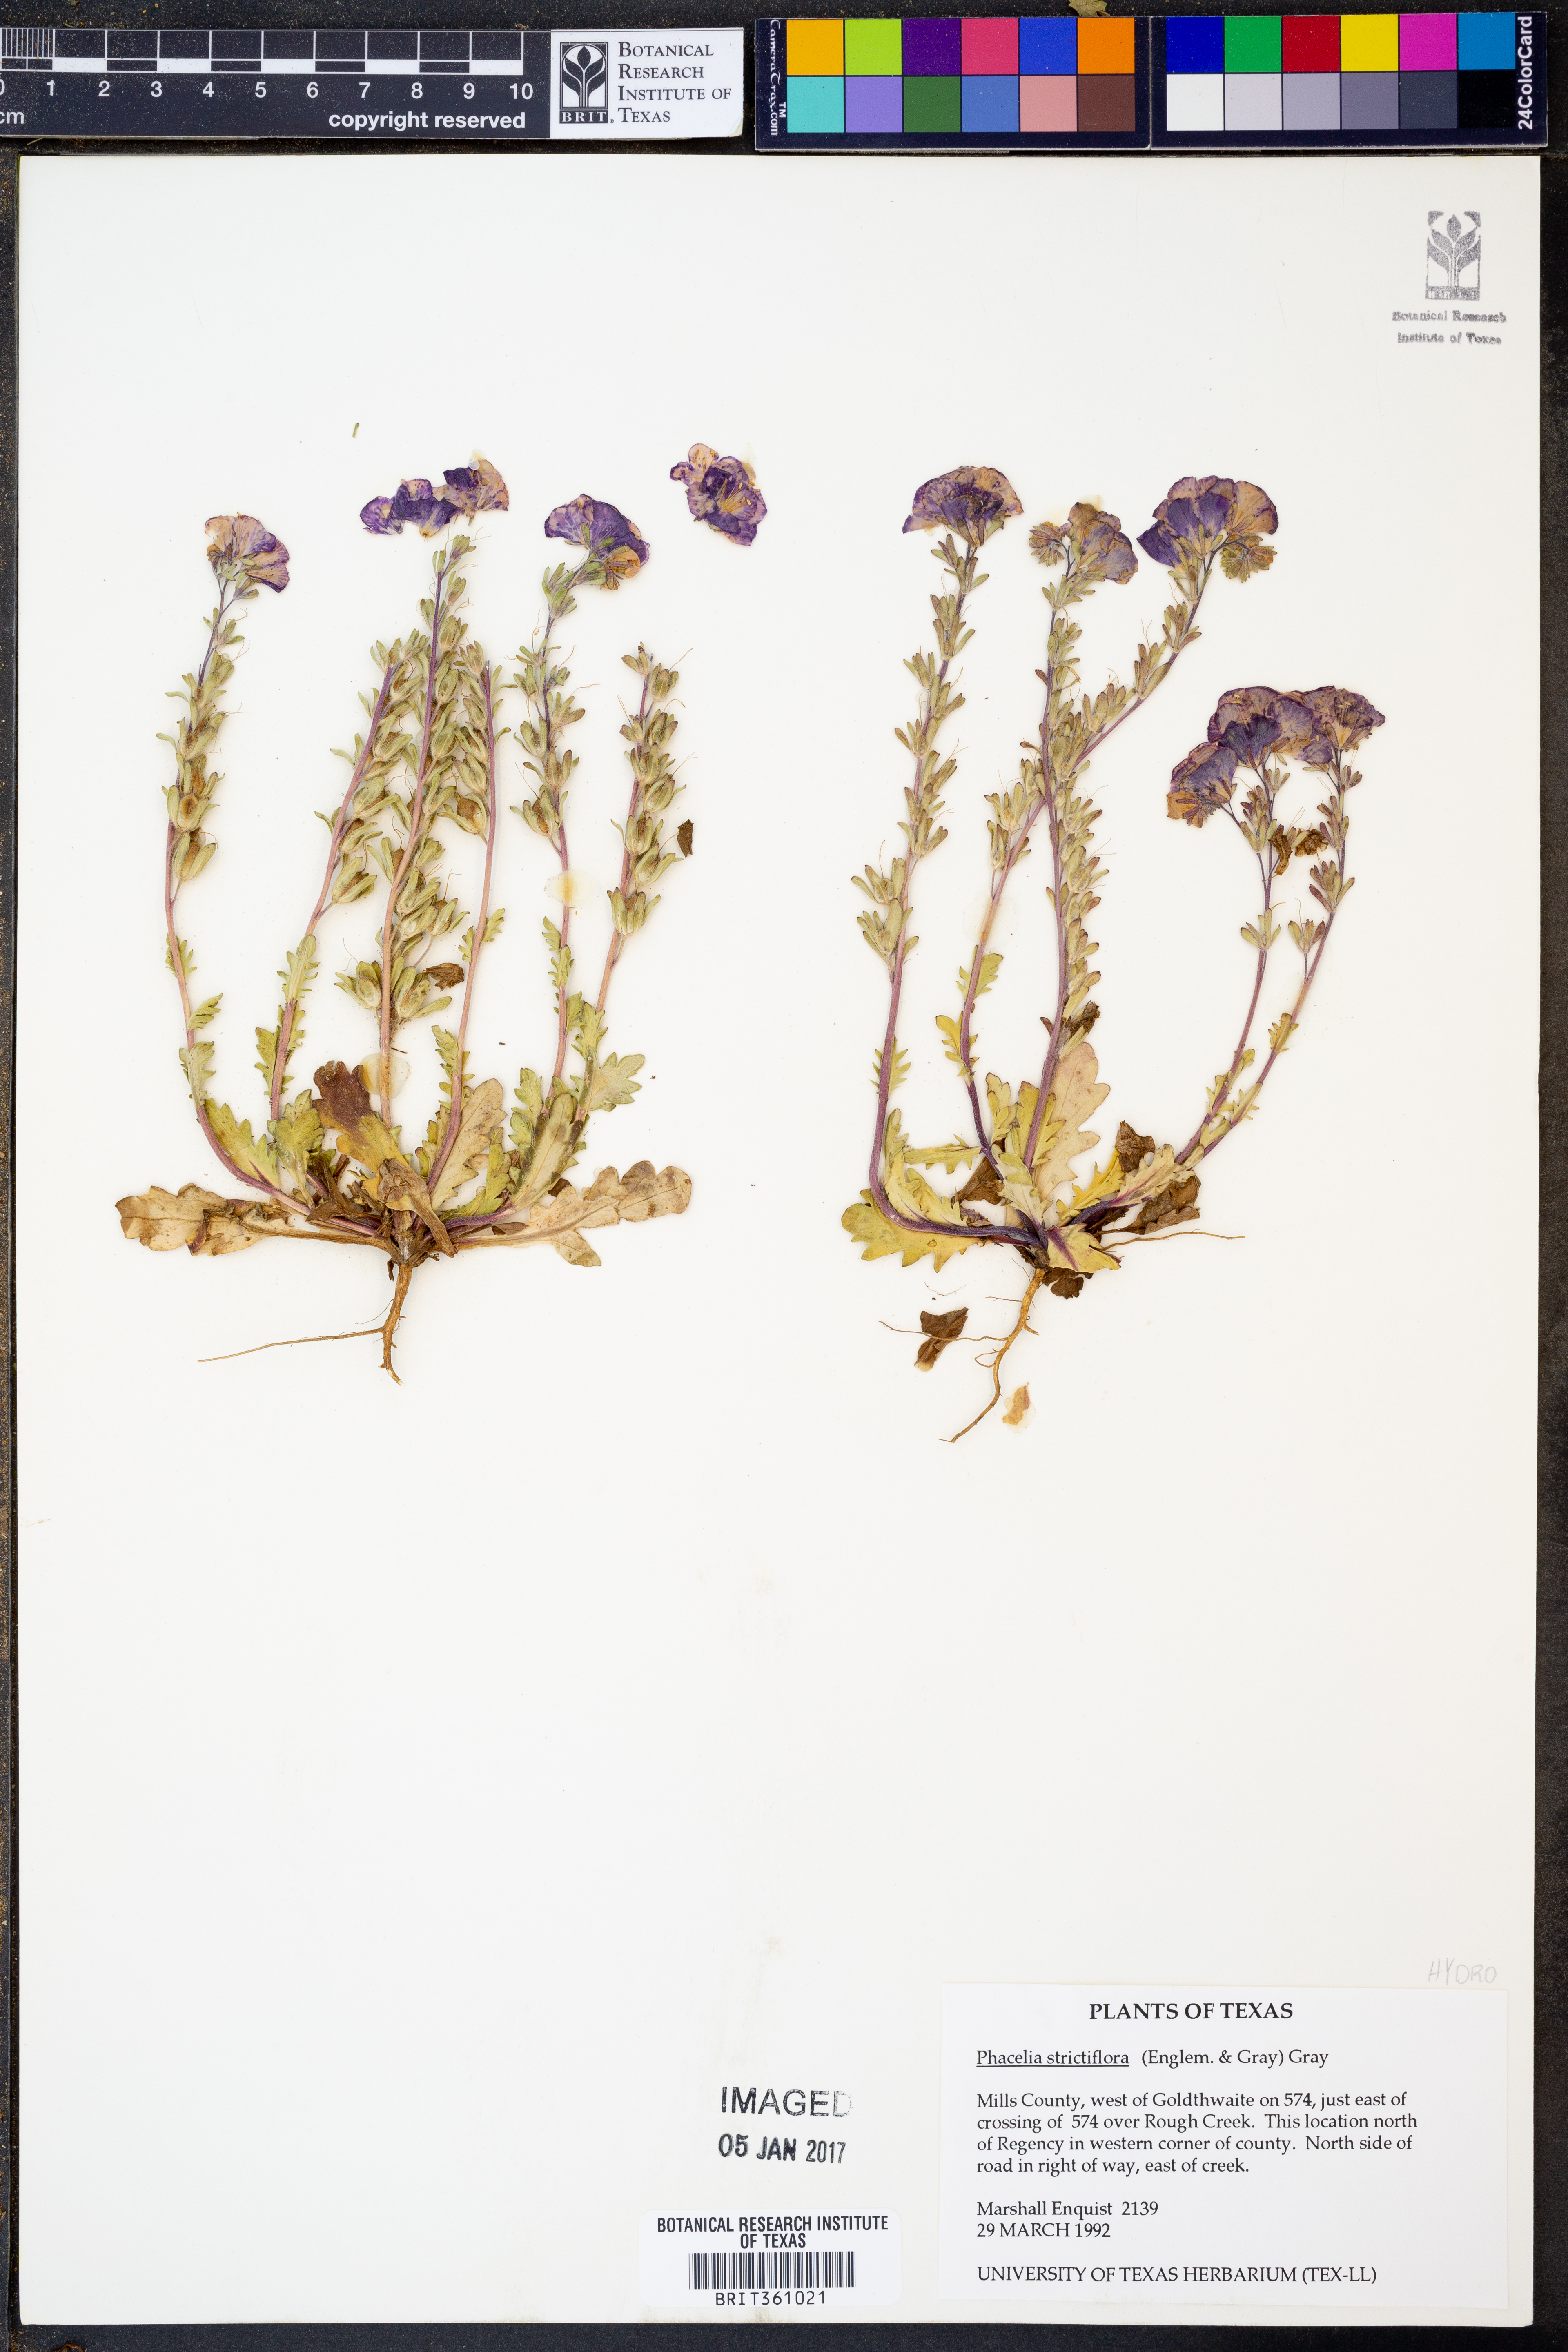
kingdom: Plantae
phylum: Tracheophyta
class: Magnoliopsida
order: Boraginales
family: Hydrophyllaceae
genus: Phacelia
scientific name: Phacelia strictiflora
